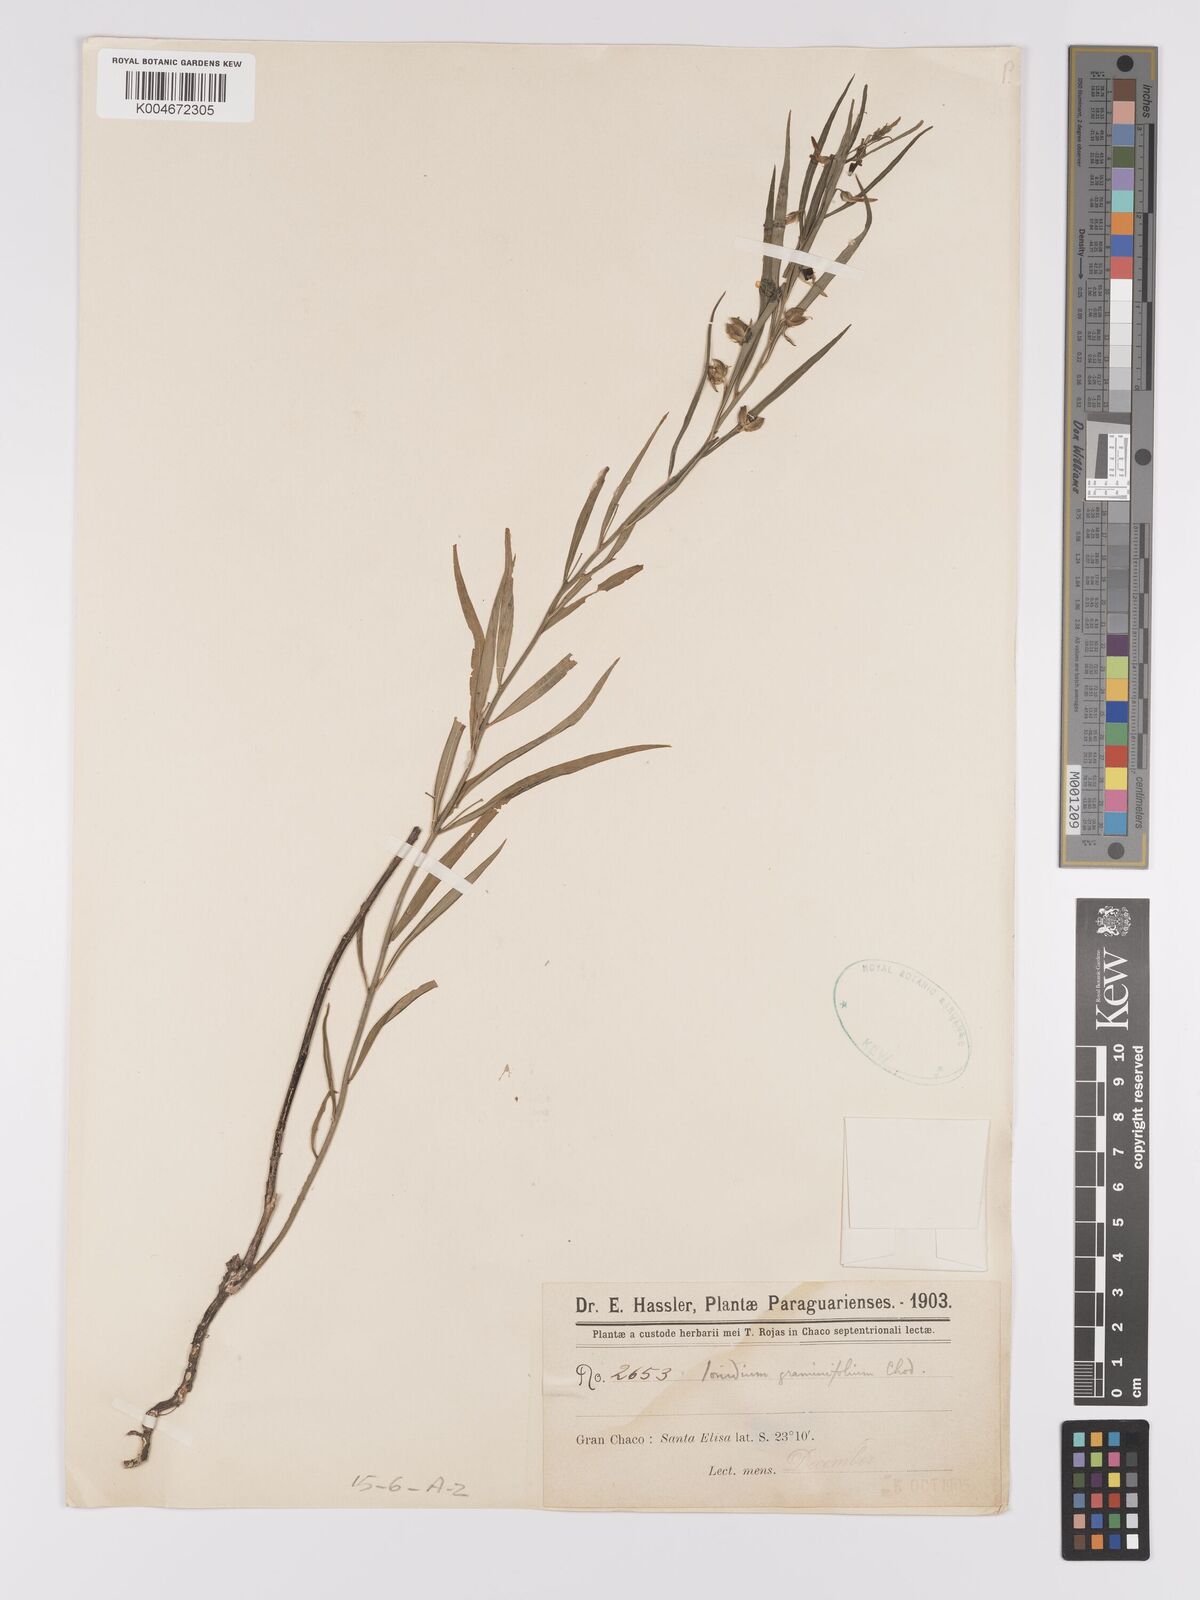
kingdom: Plantae
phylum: Tracheophyta
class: Magnoliopsida
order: Malpighiales
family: Violaceae
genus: Pombalia
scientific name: Pombalia graminifolia
